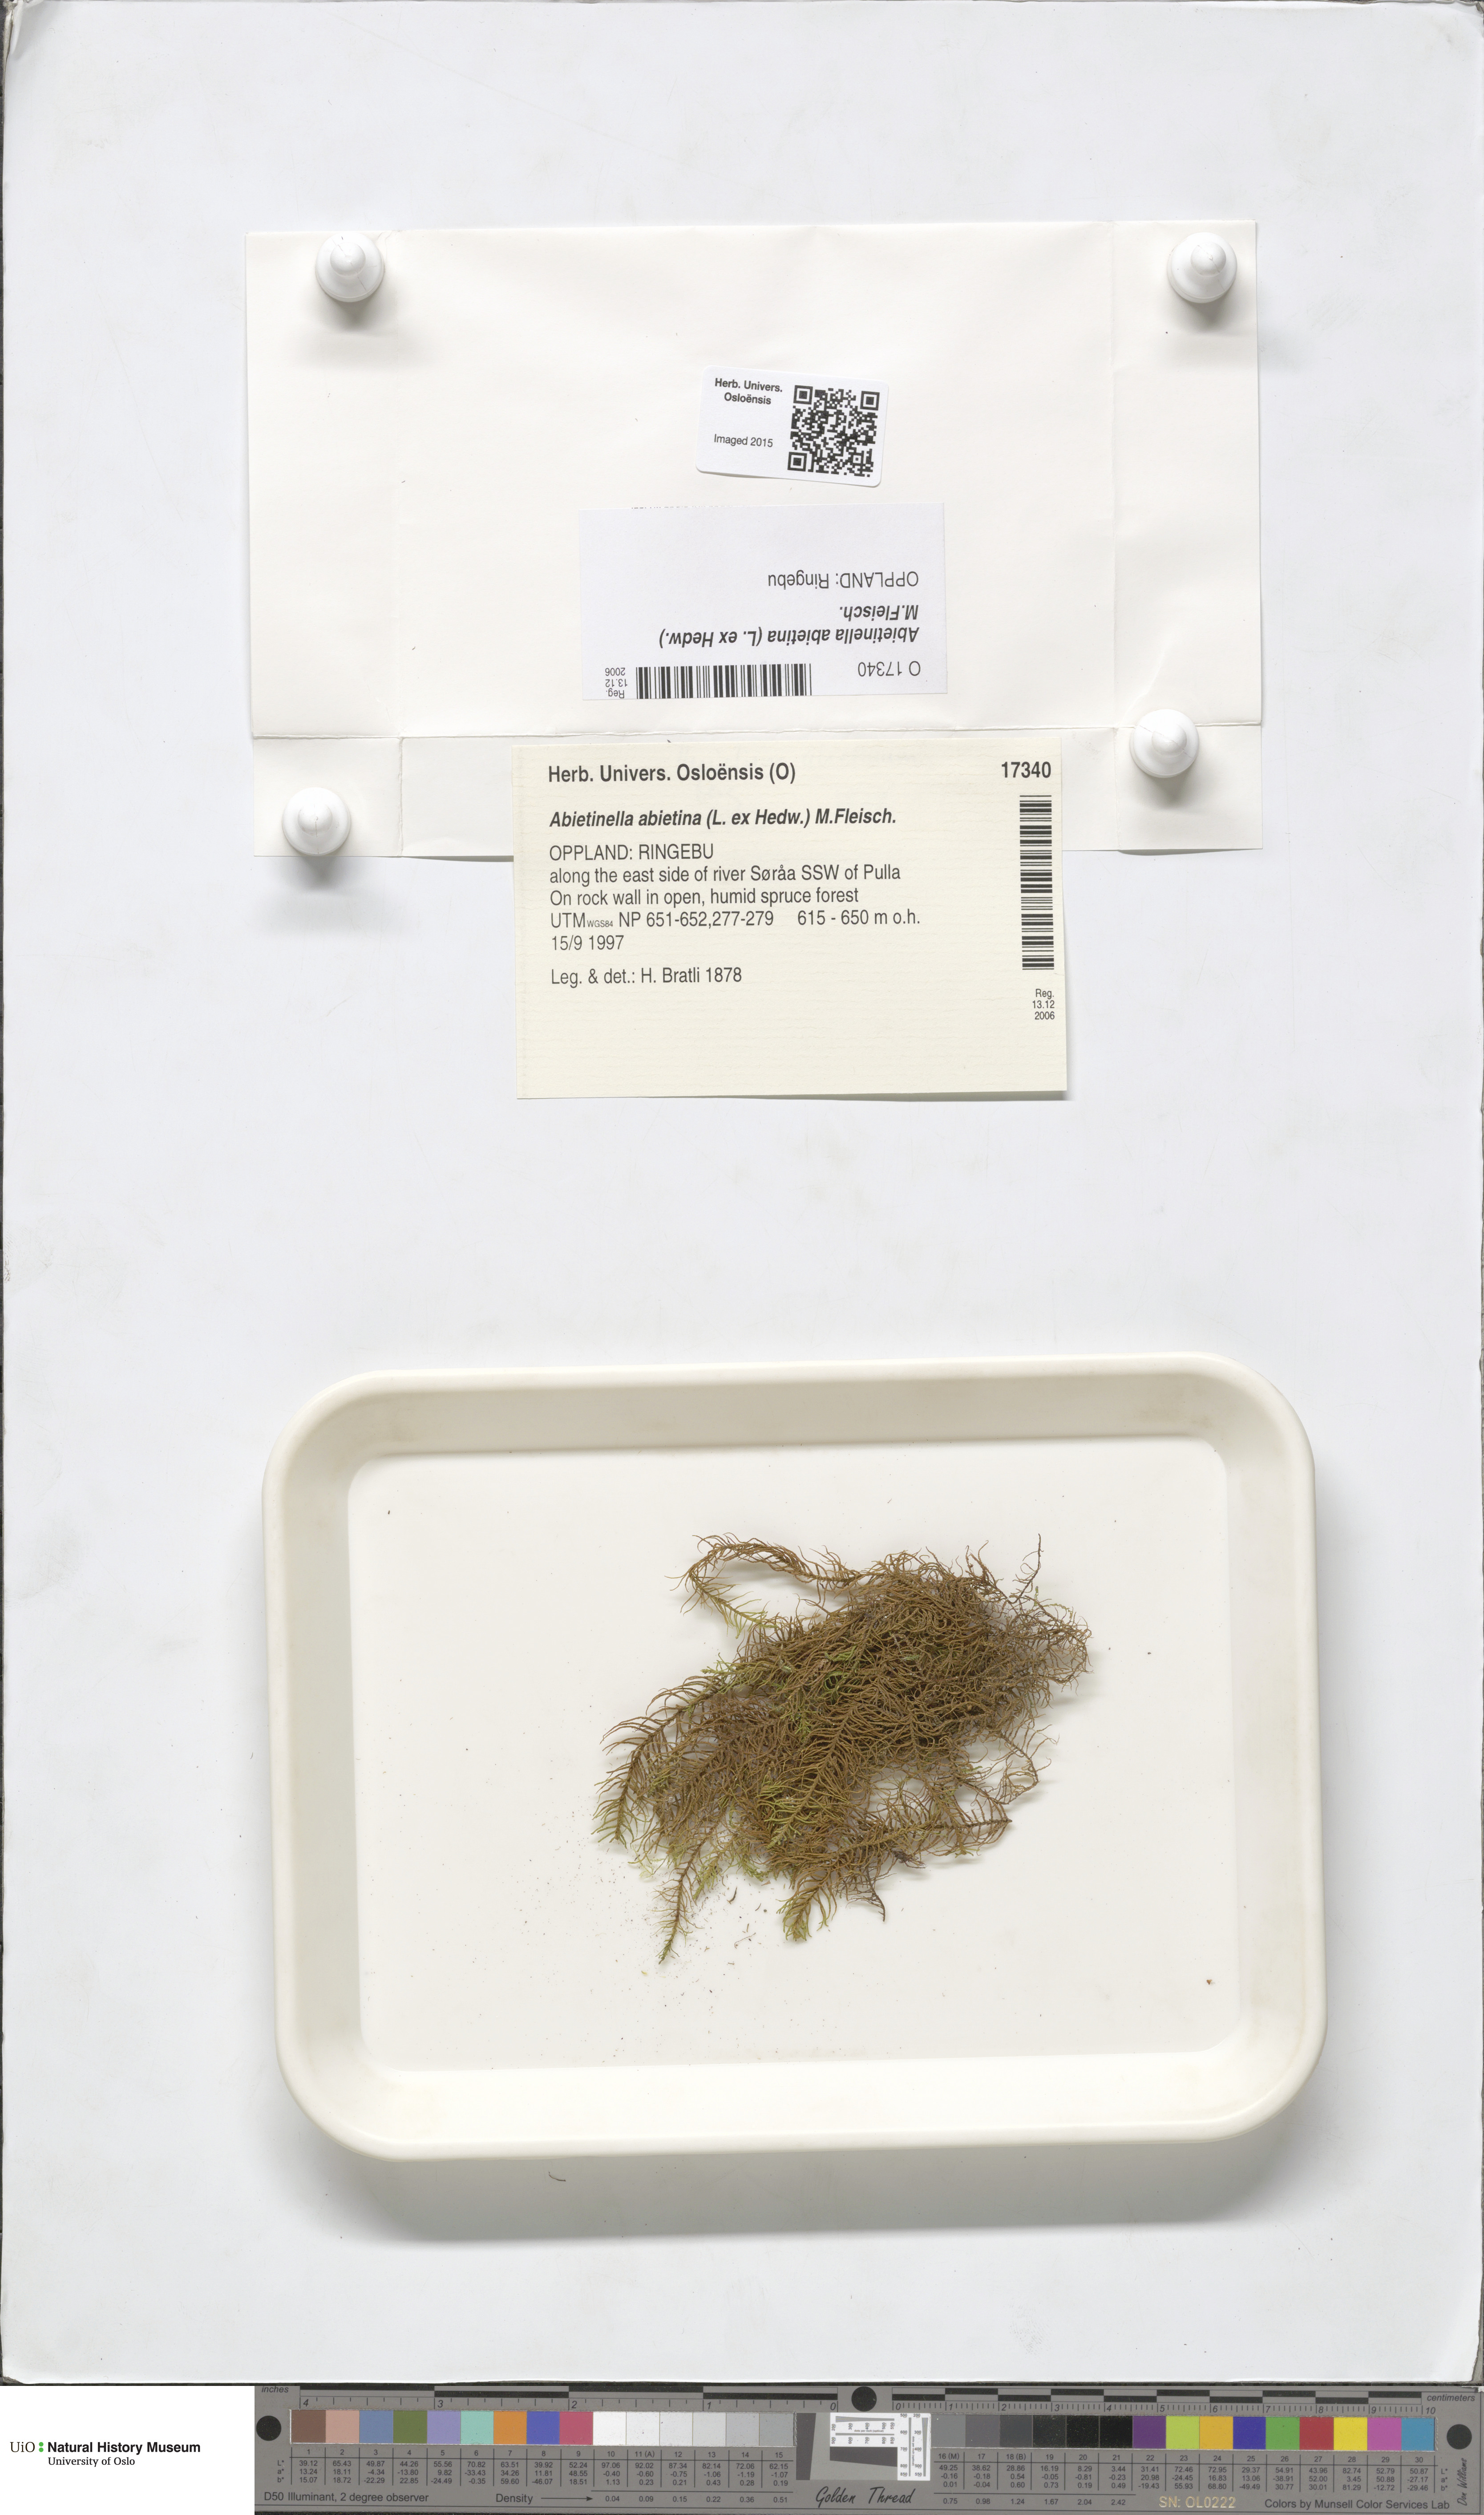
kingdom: Plantae
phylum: Bryophyta
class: Bryopsida
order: Hypnales
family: Thuidiaceae
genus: Abietinella
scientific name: Abietinella abietina
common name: Wiry fern moss
